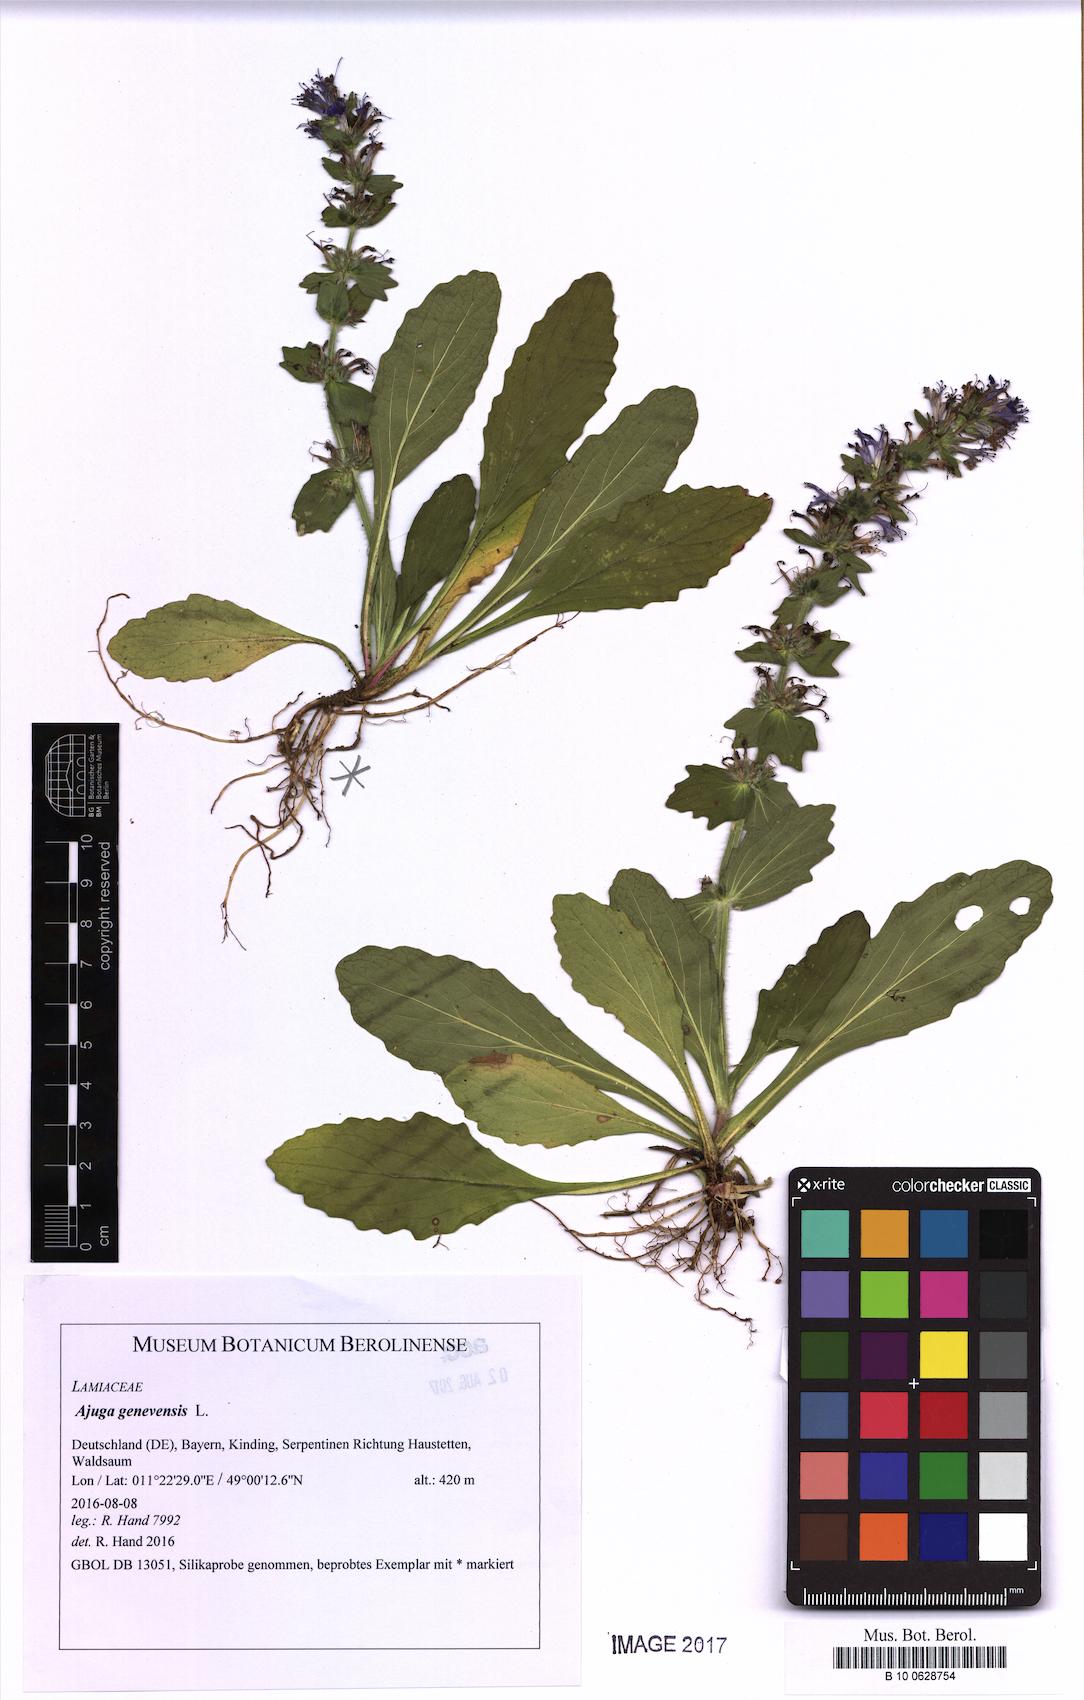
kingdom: Plantae
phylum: Tracheophyta
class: Magnoliopsida
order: Lamiales
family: Lamiaceae
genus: Ajuga
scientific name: Ajuga genevensis
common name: Blue bugle
